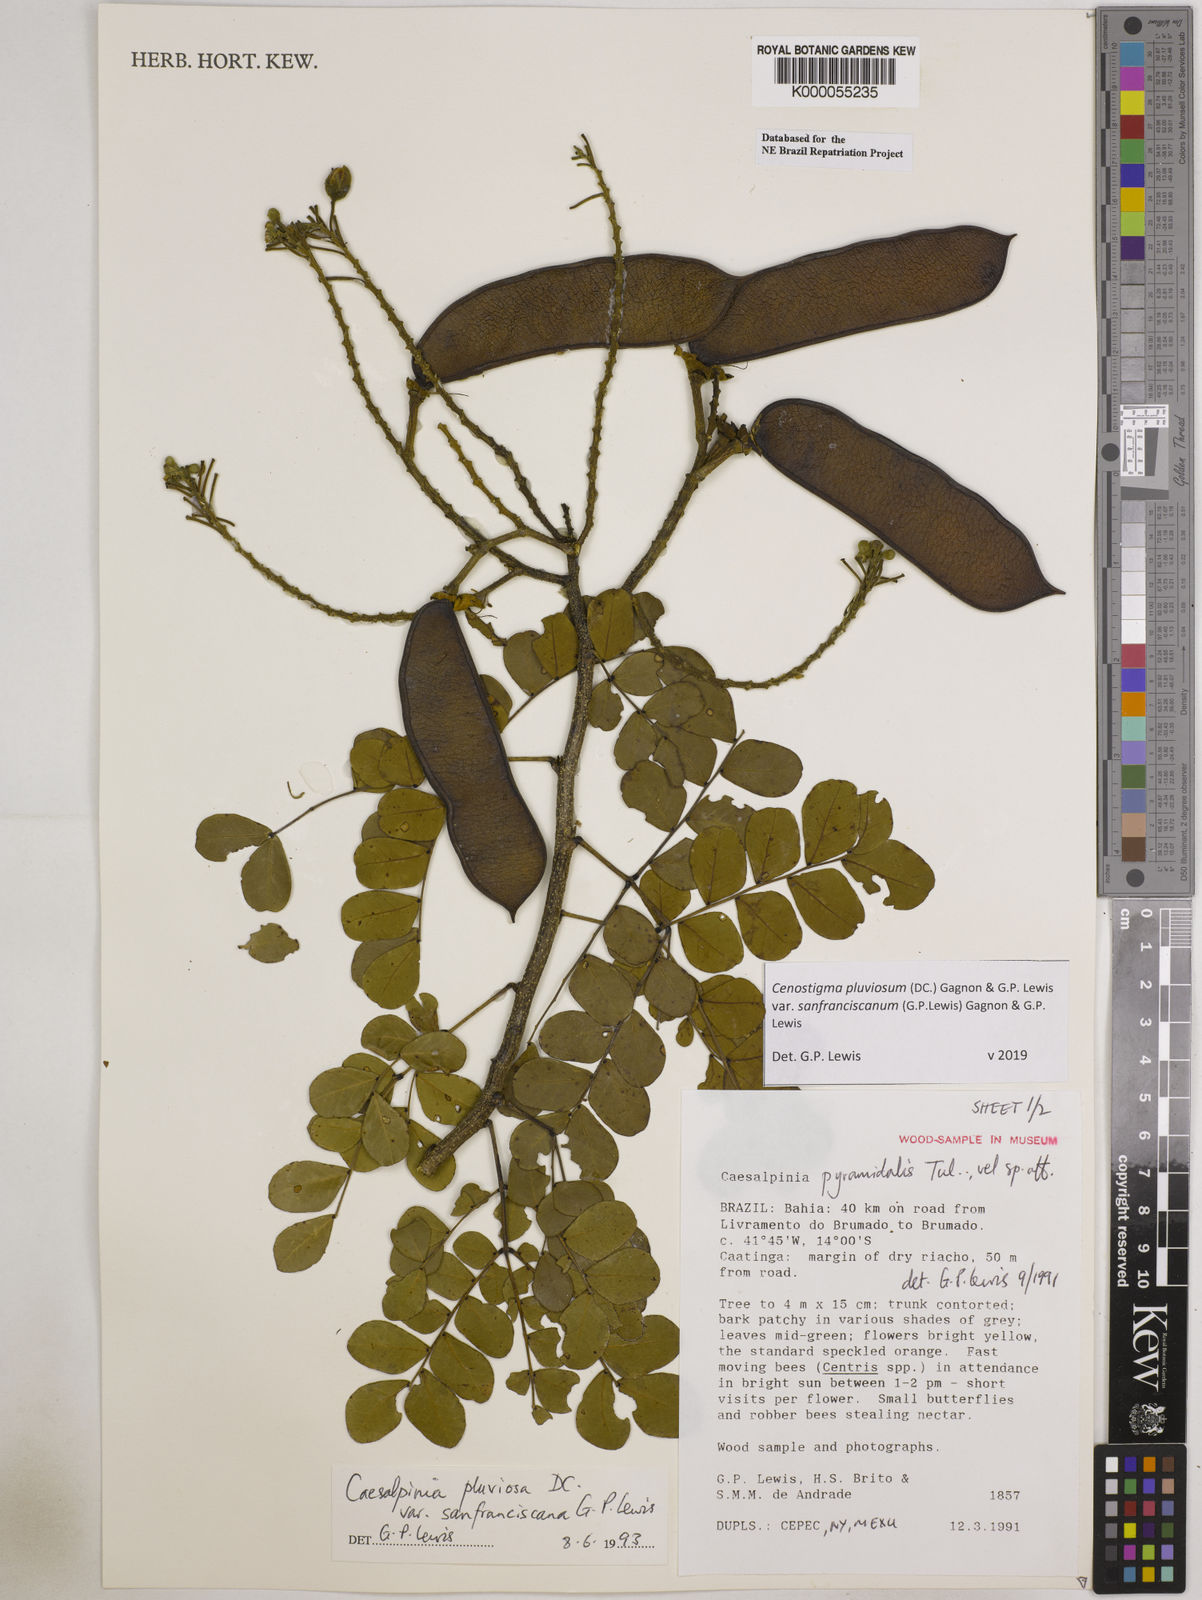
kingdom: Plantae
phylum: Tracheophyta
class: Magnoliopsida
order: Fabales
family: Fabaceae
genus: Cenostigma
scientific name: Cenostigma pluviosum
